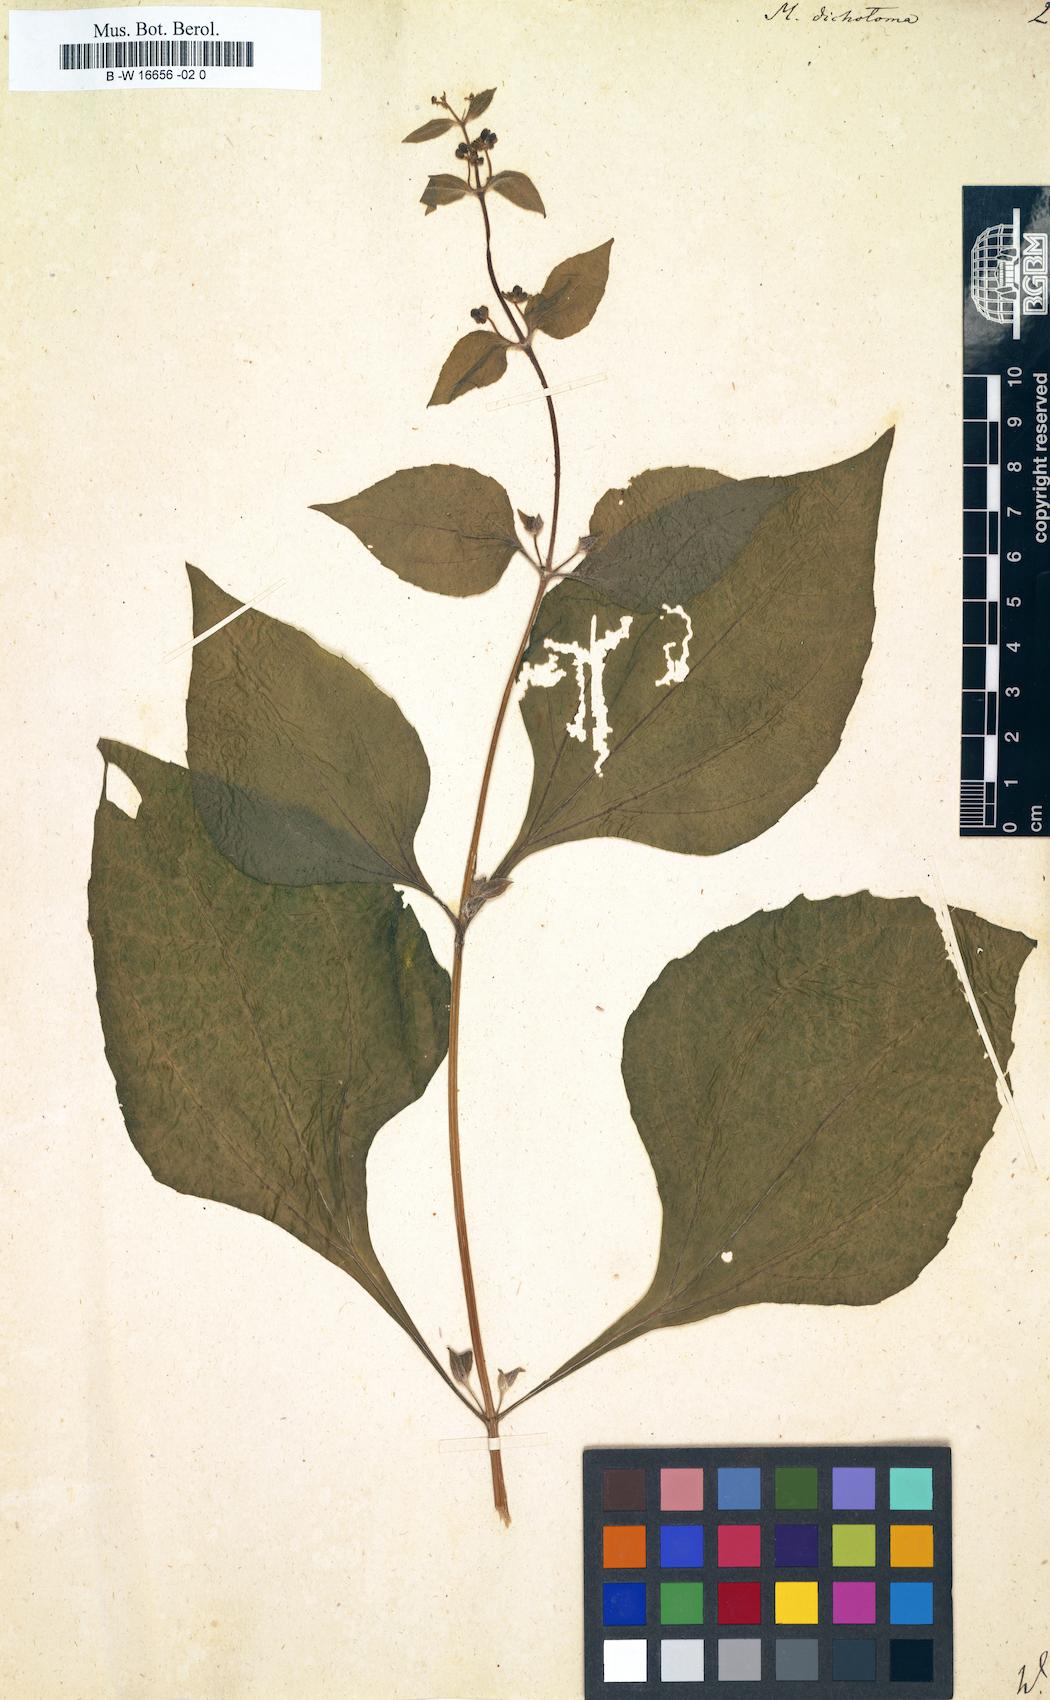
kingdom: Plantae
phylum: Tracheophyta
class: Magnoliopsida
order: Asterales
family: Asteraceae
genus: Milleria
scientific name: Milleria quinqueflora
